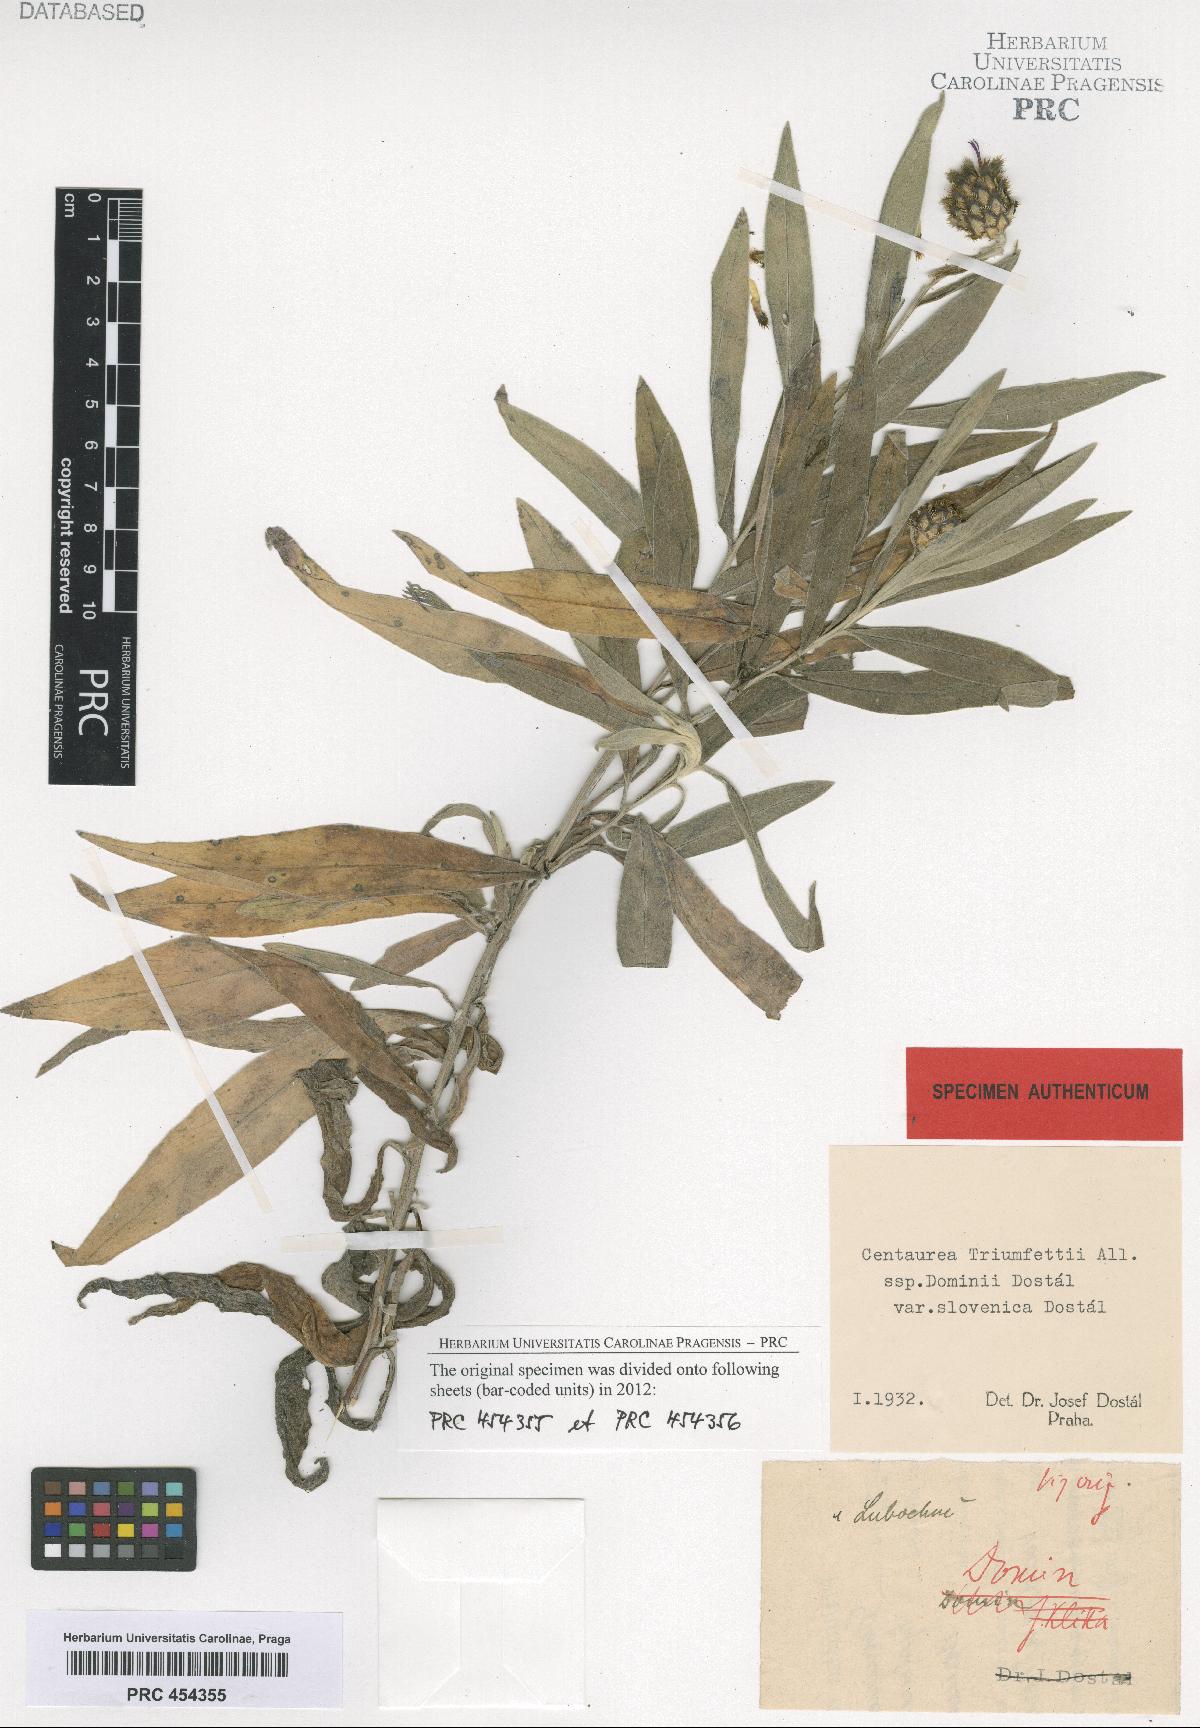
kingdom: Plantae
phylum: Tracheophyta
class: Magnoliopsida
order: Asterales
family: Asteraceae
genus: Centaurea
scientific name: Centaurea dominii
